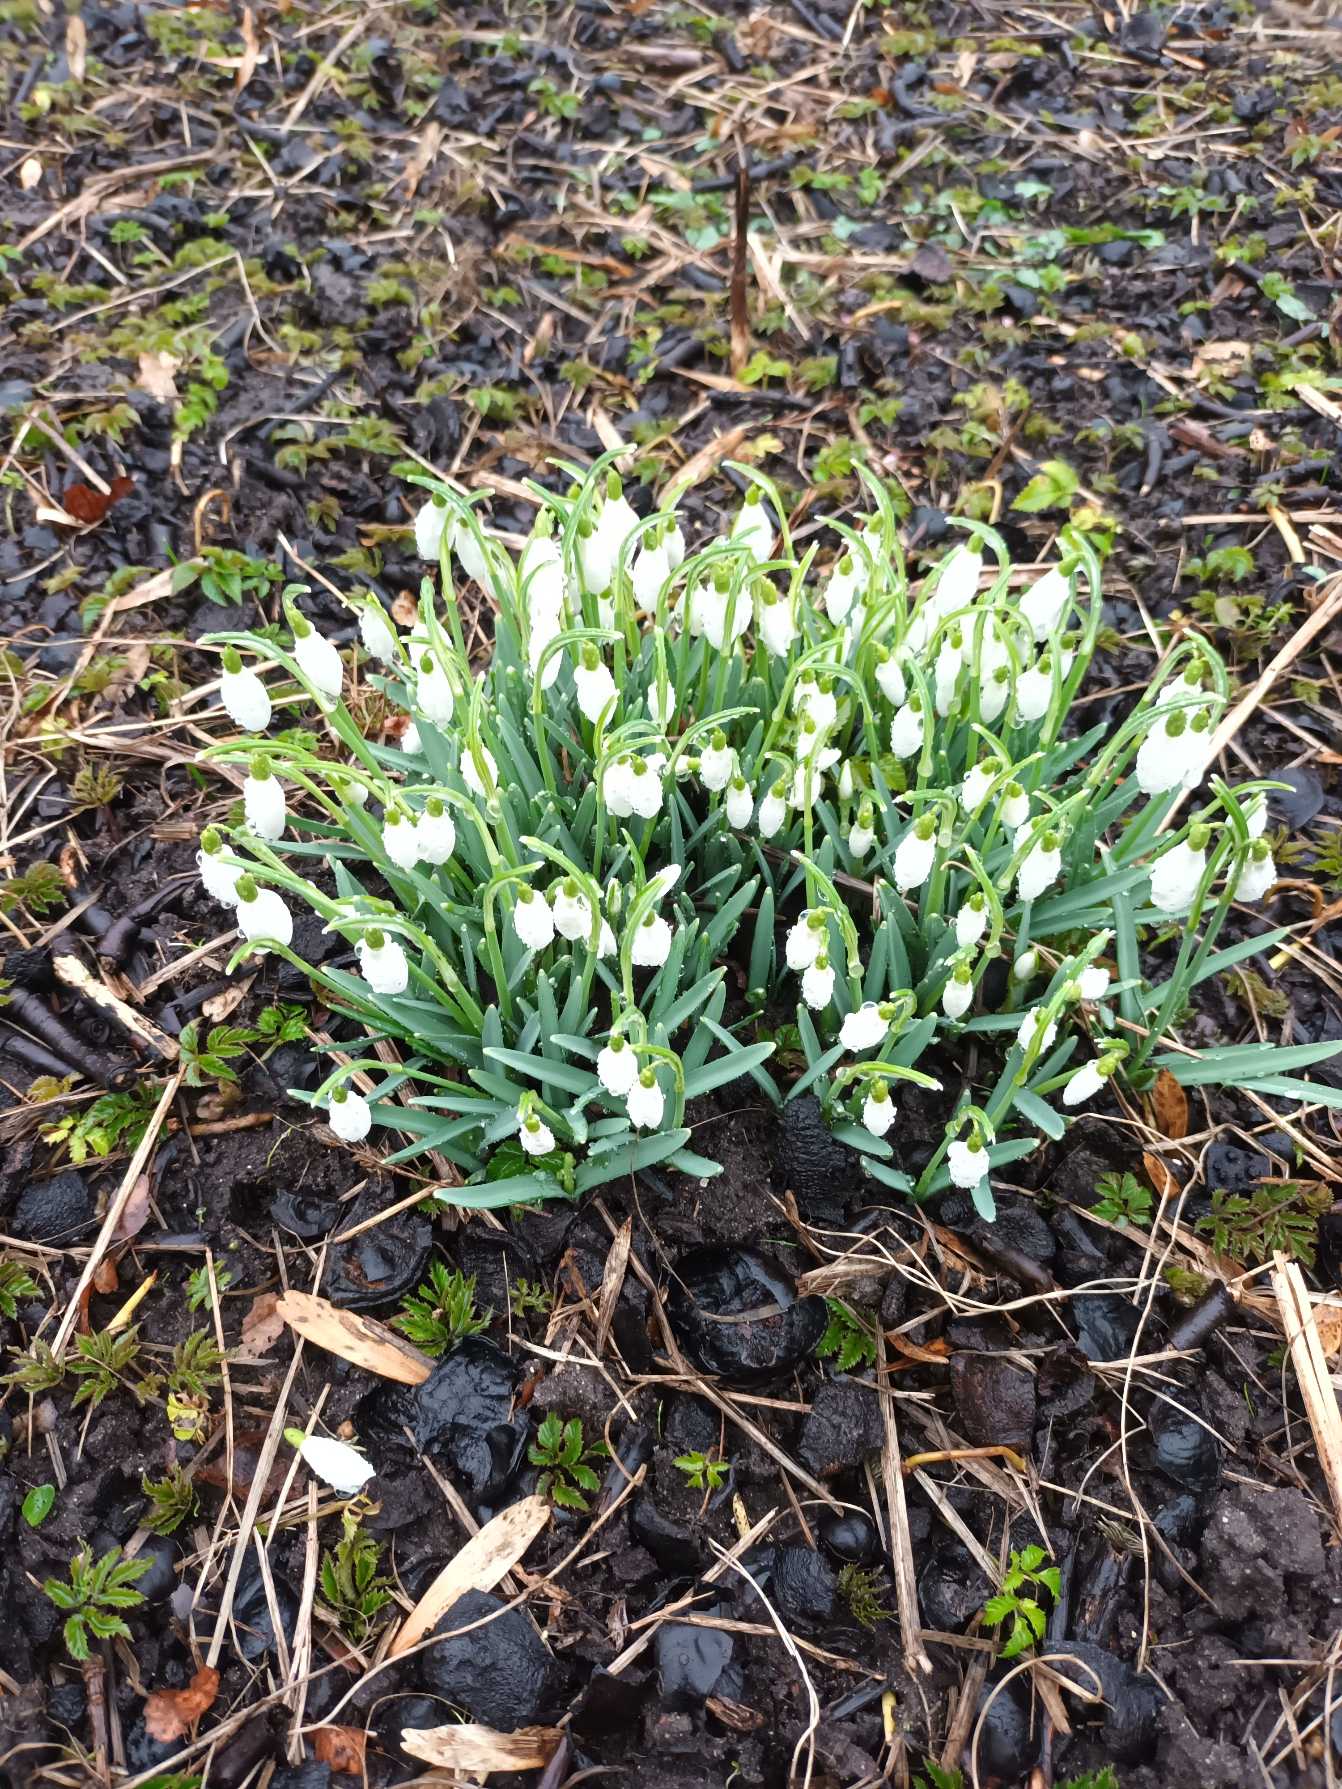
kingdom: Plantae
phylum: Tracheophyta
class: Liliopsida
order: Asparagales
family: Amaryllidaceae
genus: Galanthus
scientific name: Galanthus nivalis
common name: Vintergæk
